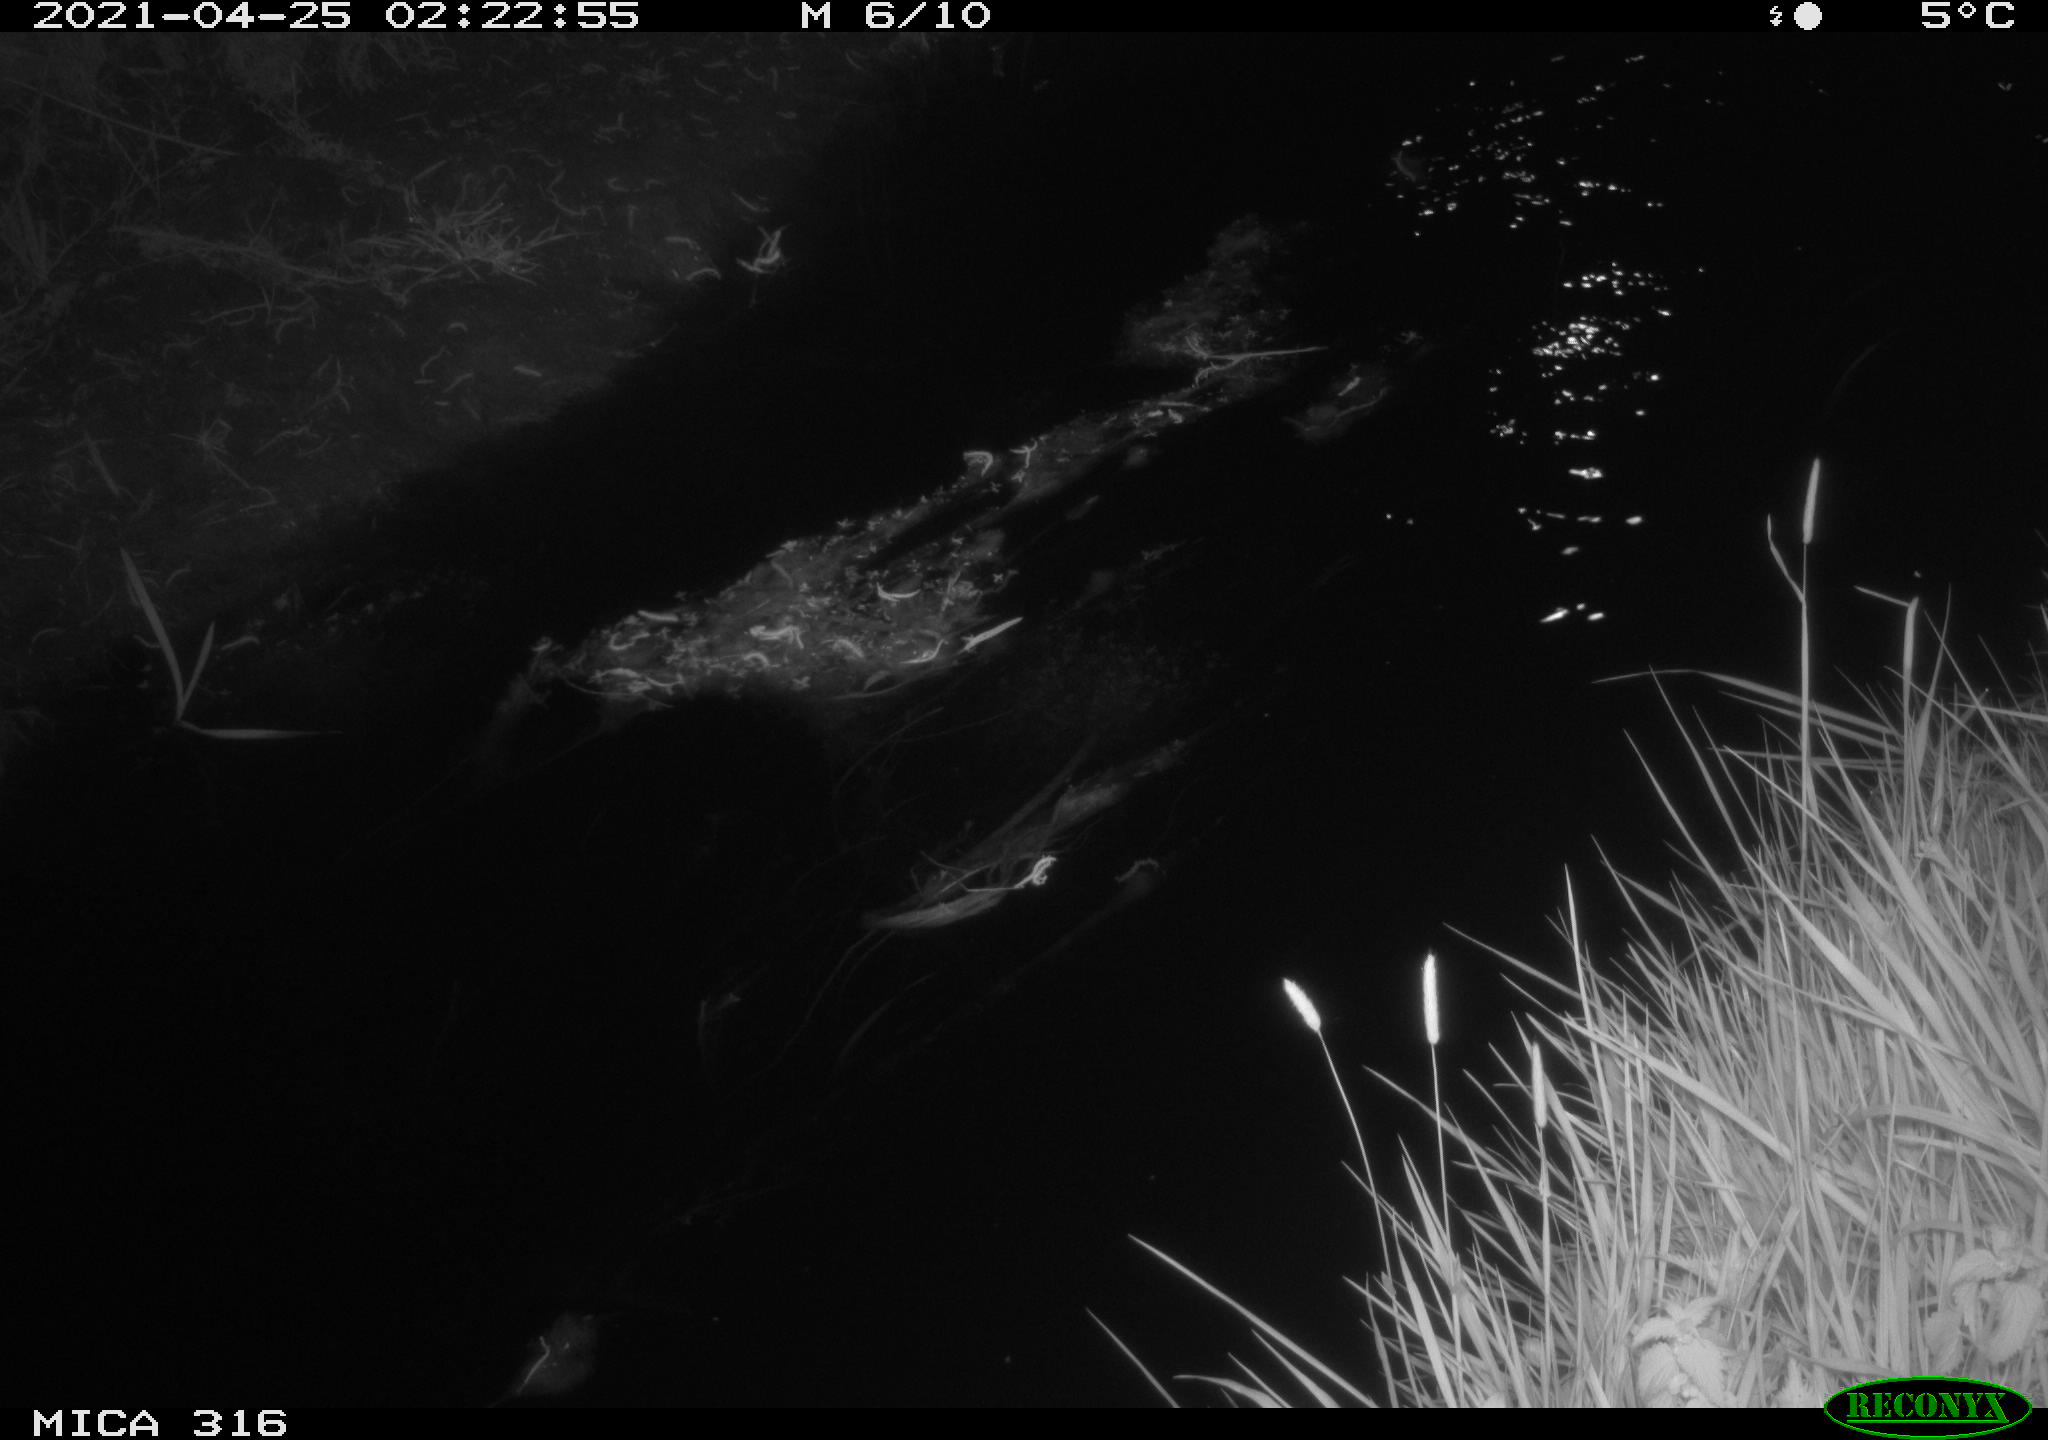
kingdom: Animalia
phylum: Chordata
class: Aves
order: Anseriformes
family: Anatidae
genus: Anas
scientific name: Anas platyrhynchos
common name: Mallard
